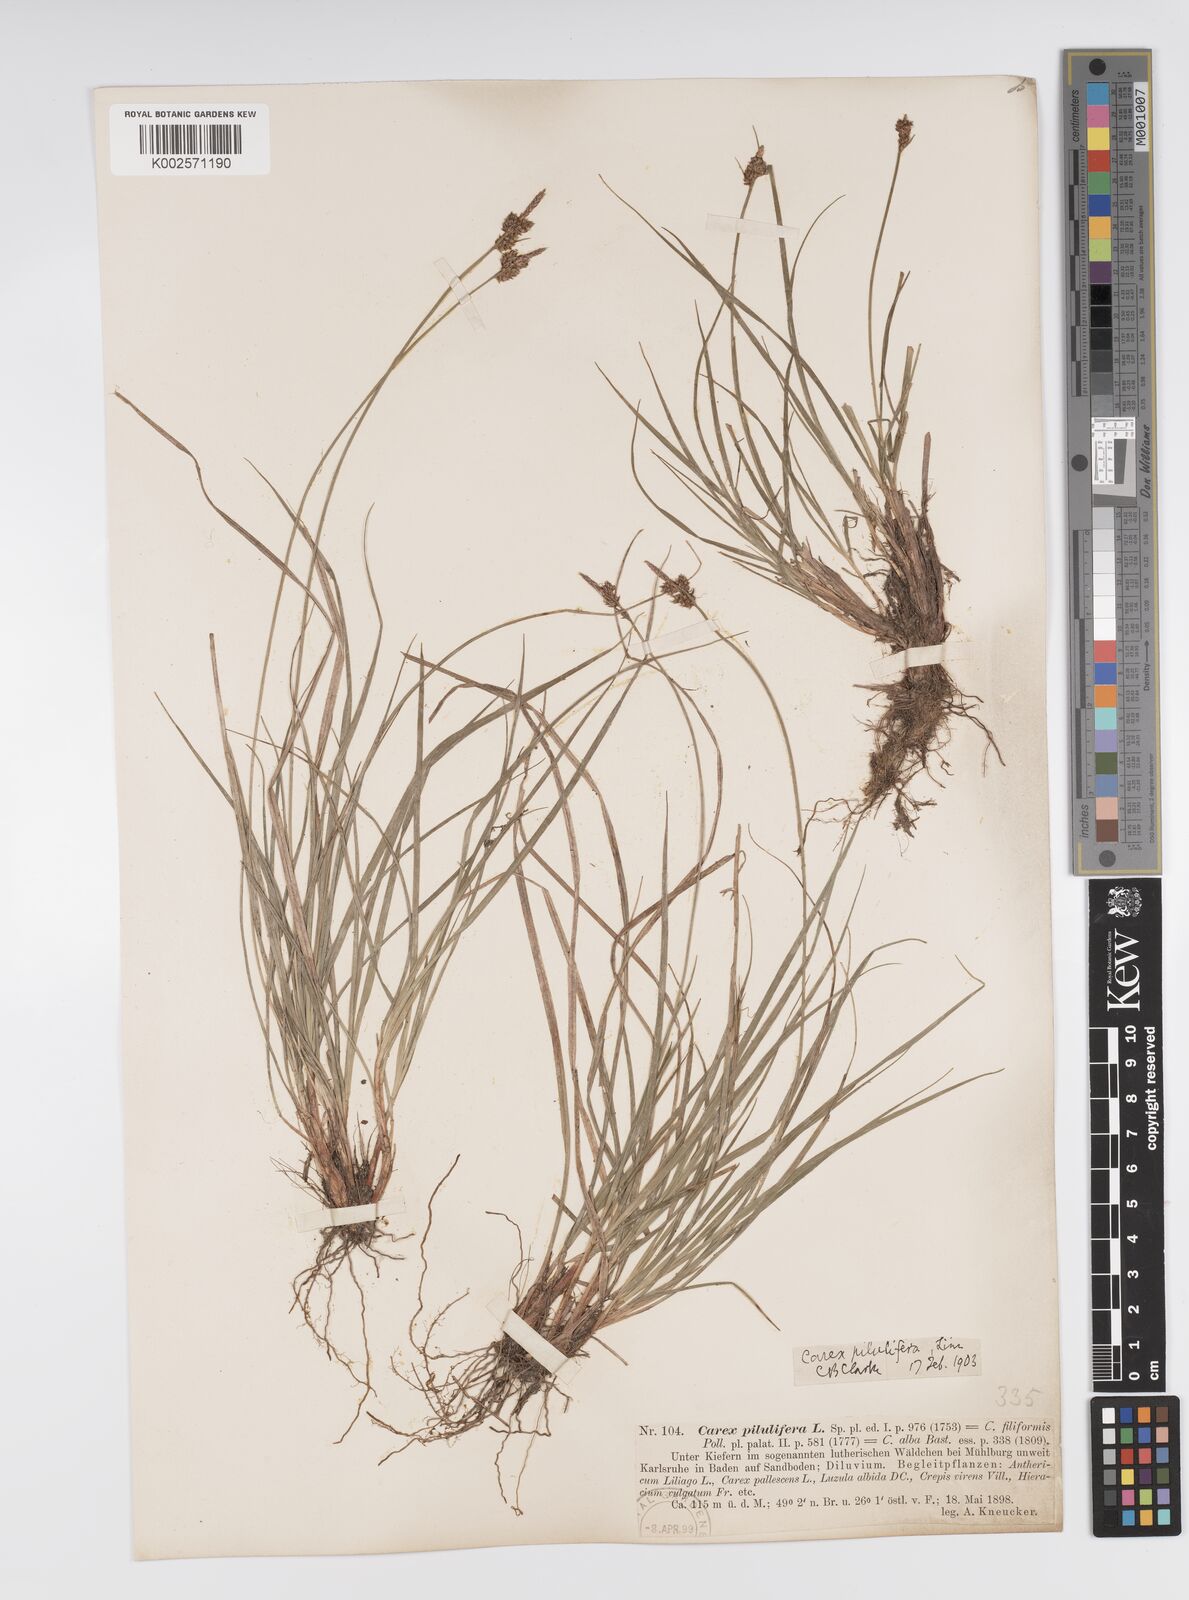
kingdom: Plantae
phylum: Tracheophyta
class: Liliopsida
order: Poales
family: Cyperaceae
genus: Carex
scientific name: Carex pilulifera
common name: Pill sedge
